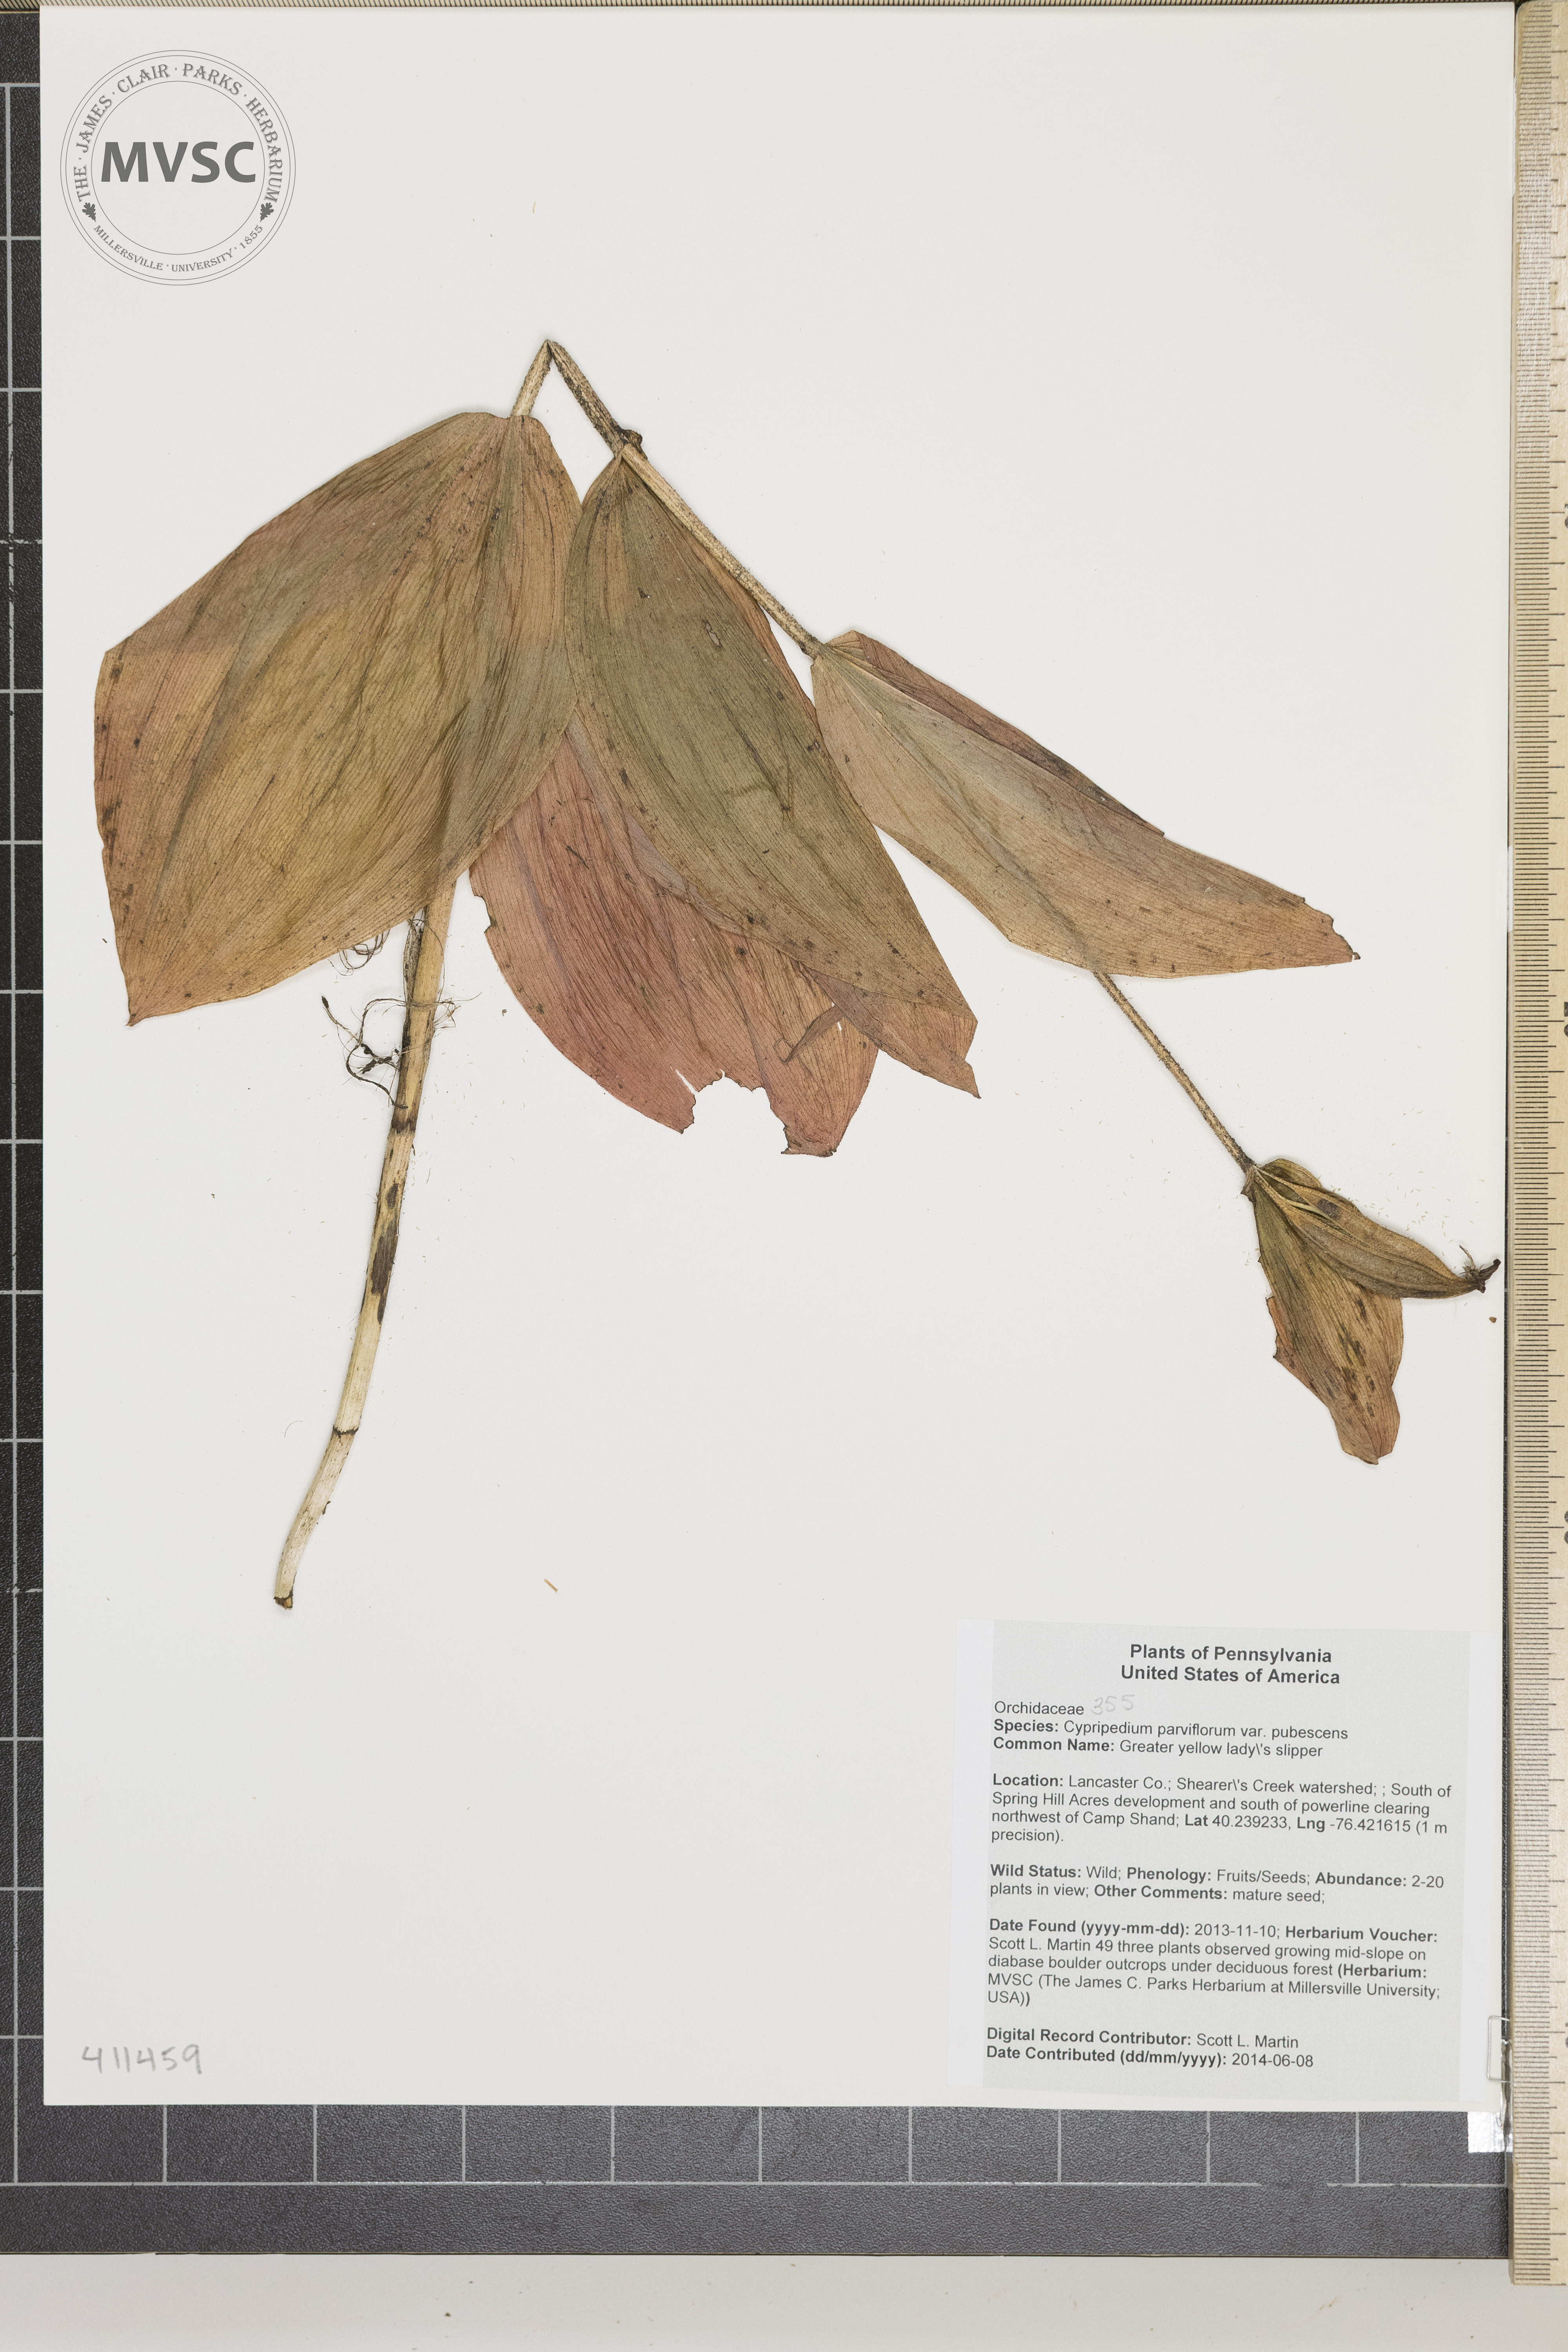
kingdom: Plantae
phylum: Tracheophyta
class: Liliopsida
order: Asparagales
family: Orchidaceae
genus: Cypripedium
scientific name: Cypripedium parviflorum
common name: Greater yellow lady's slipper
